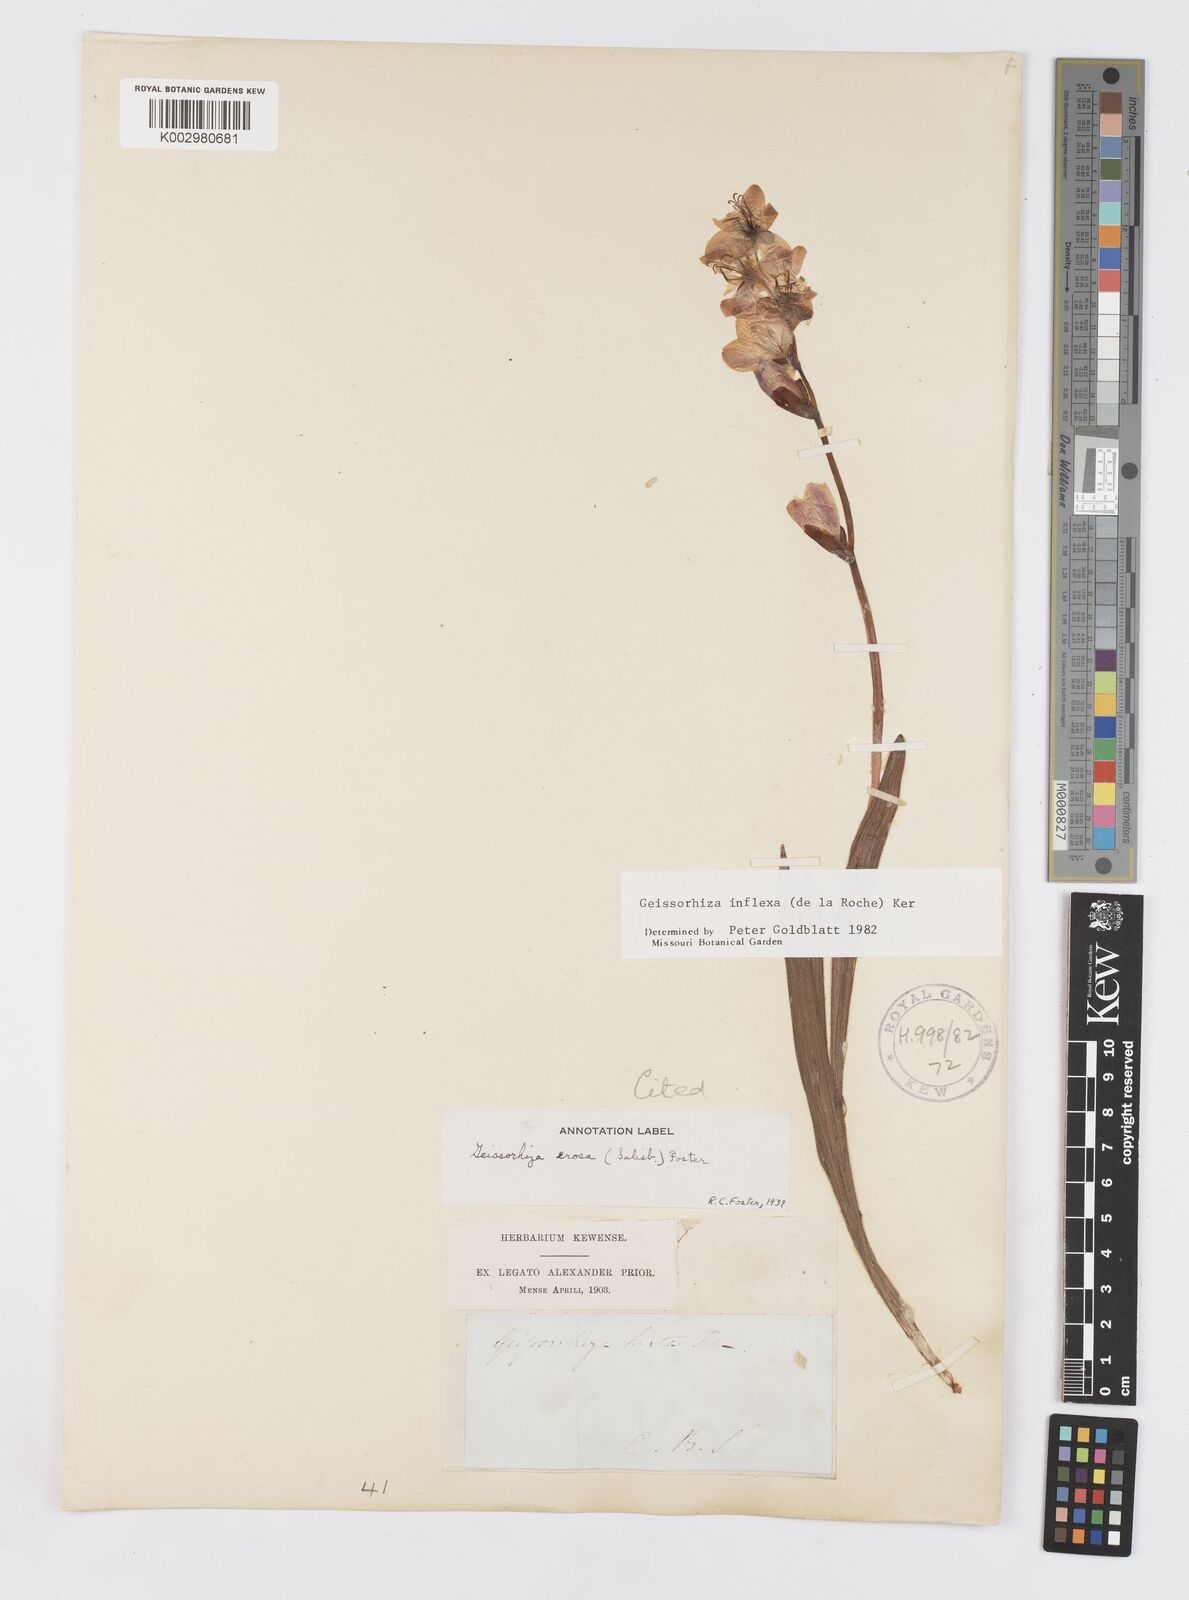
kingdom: Plantae
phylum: Tracheophyta
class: Liliopsida
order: Asparagales
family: Iridaceae
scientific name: Iridaceae
